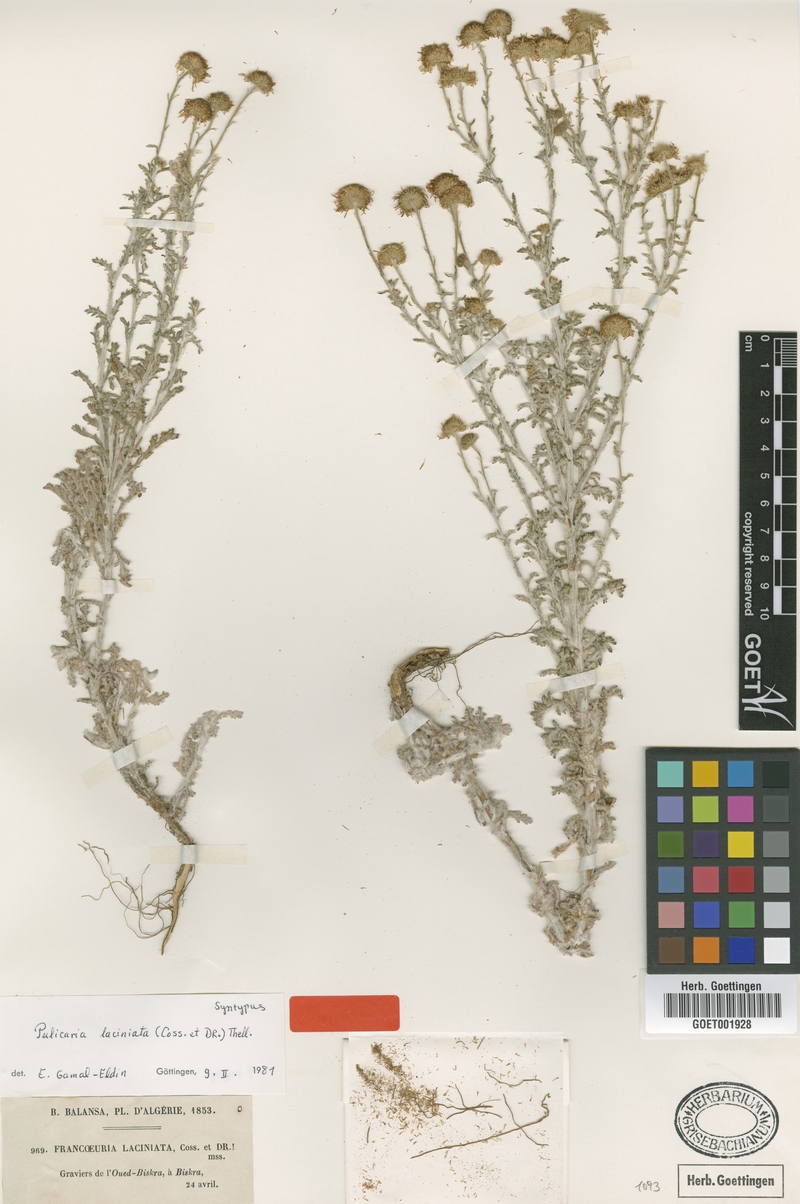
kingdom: Plantae
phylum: Tracheophyta
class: Magnoliopsida
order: Asterales
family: Asteraceae
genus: Pulicaria
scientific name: Pulicaria laciniata
